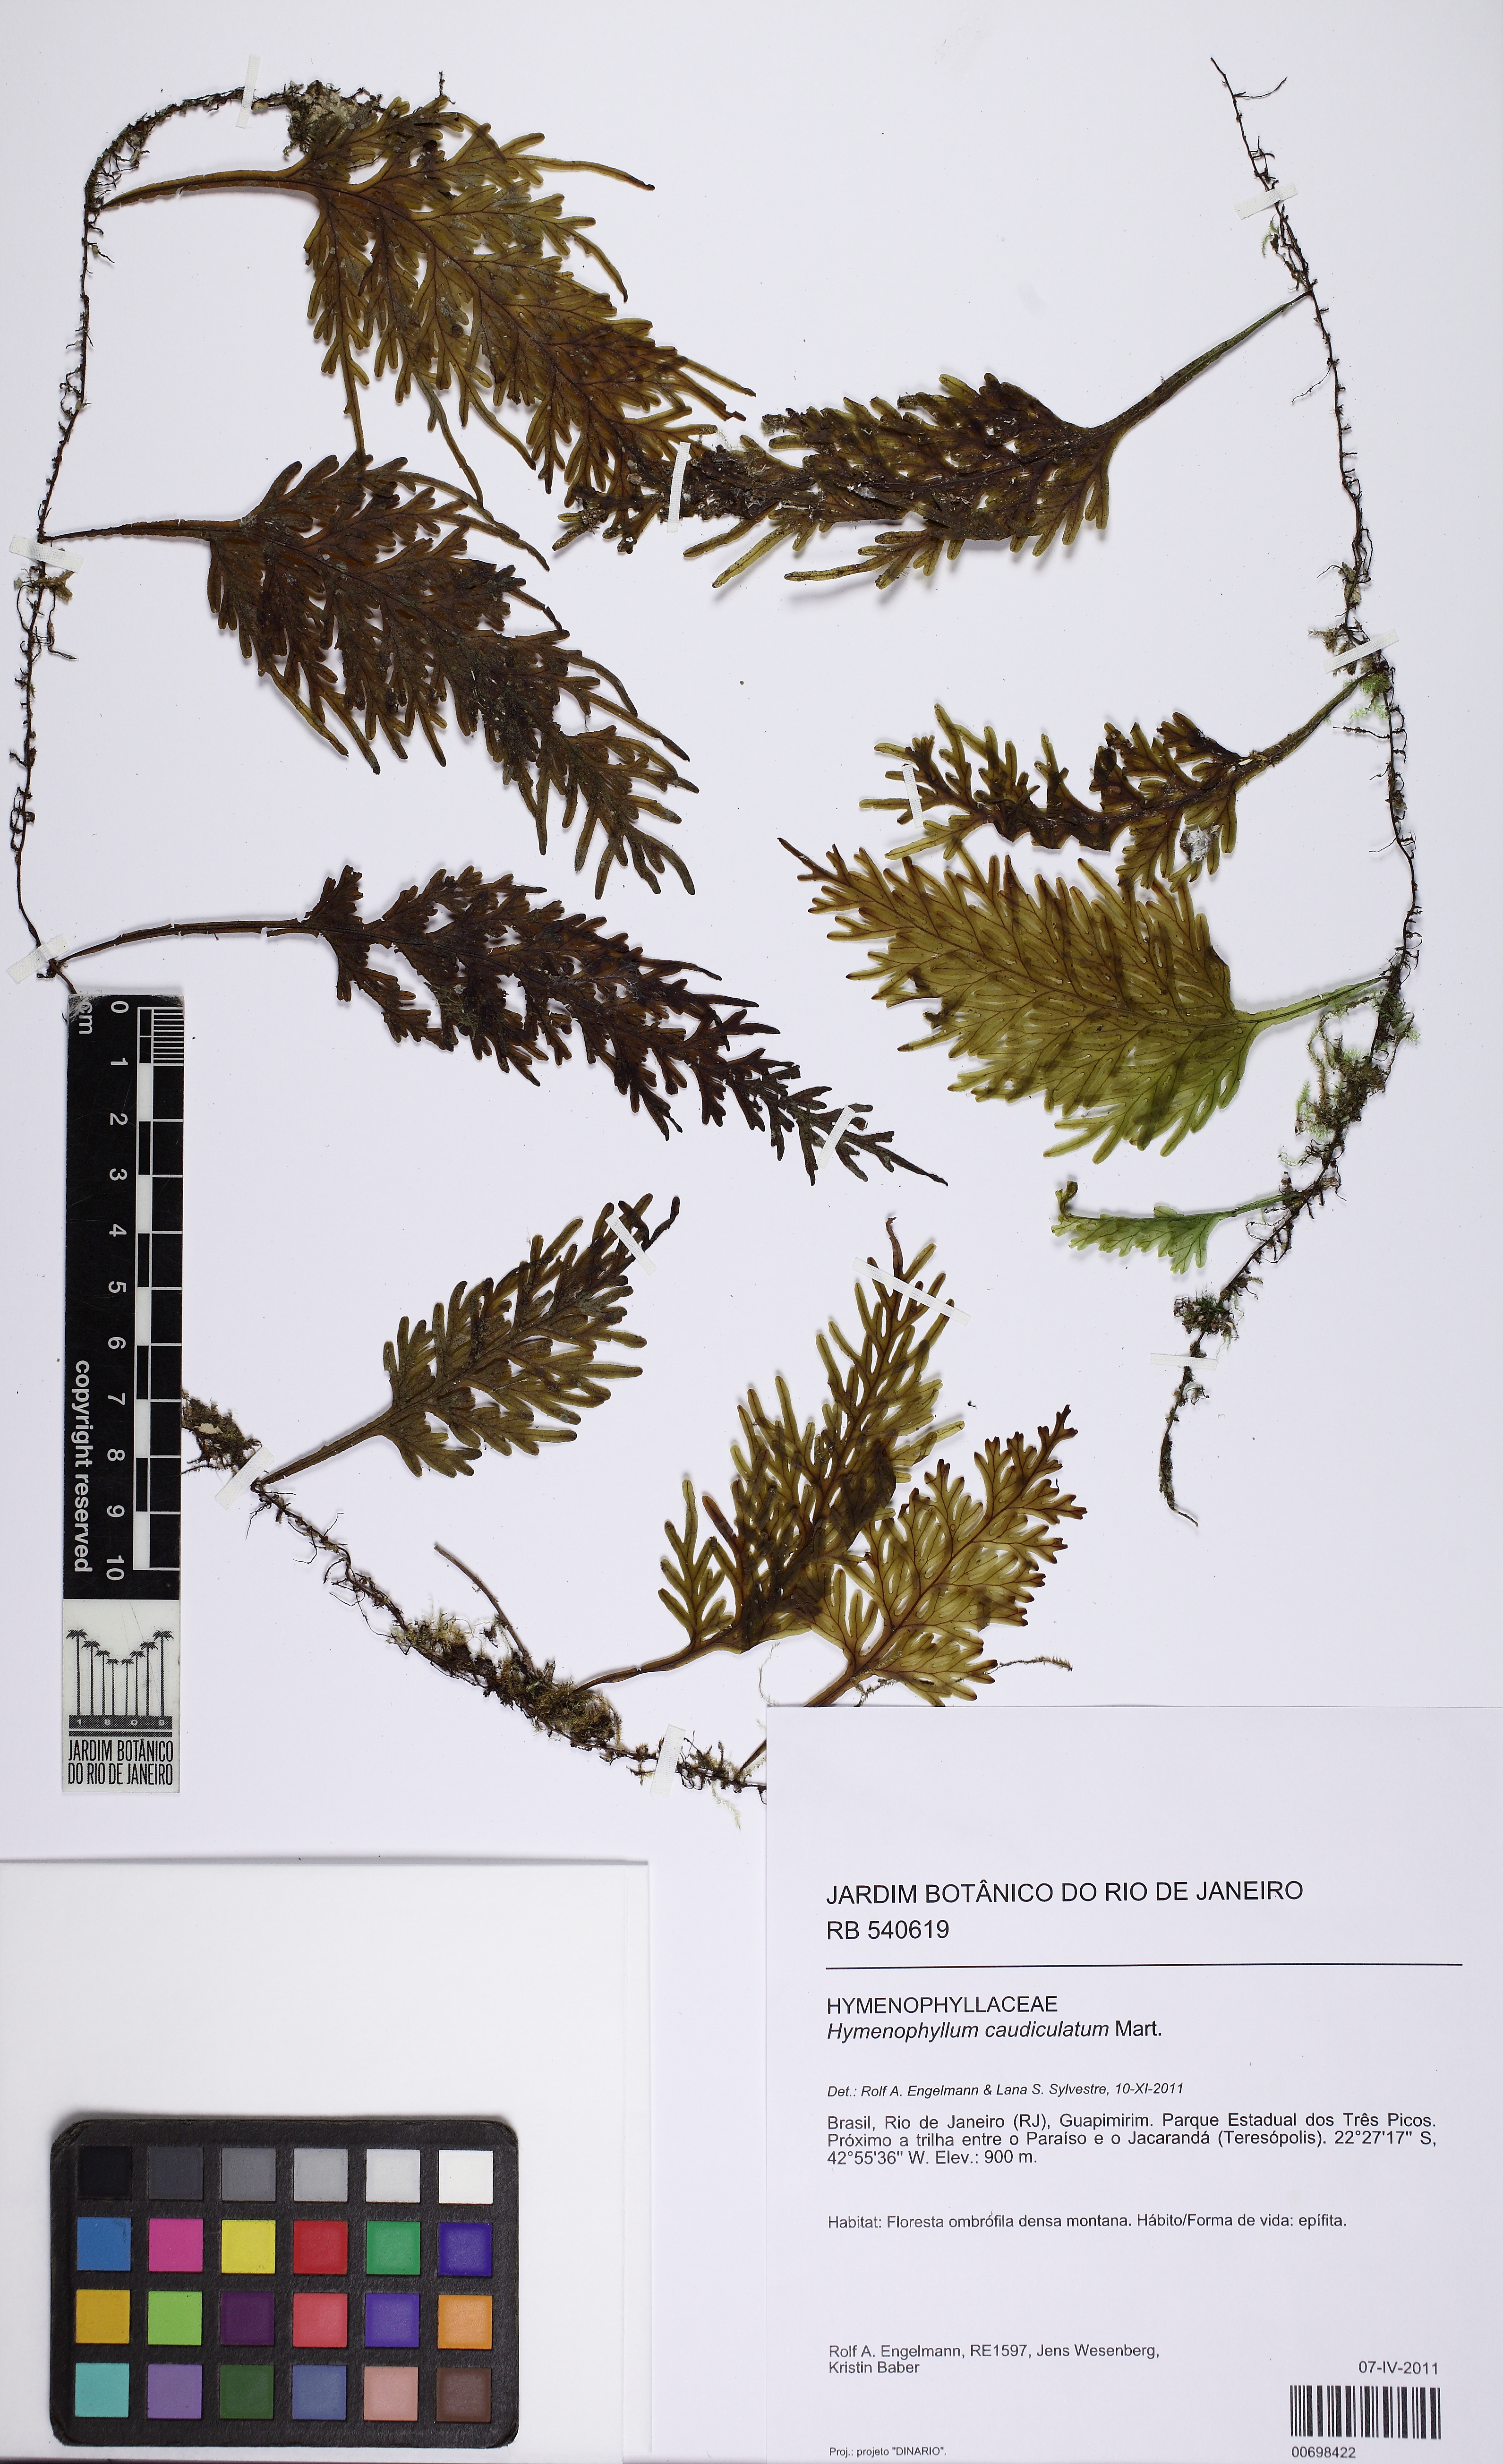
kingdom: Plantae
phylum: Tracheophyta
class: Polypodiopsida
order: Hymenophyllales
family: Hymenophyllaceae
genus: Hymenophyllum
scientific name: Hymenophyllum caudiculatum
